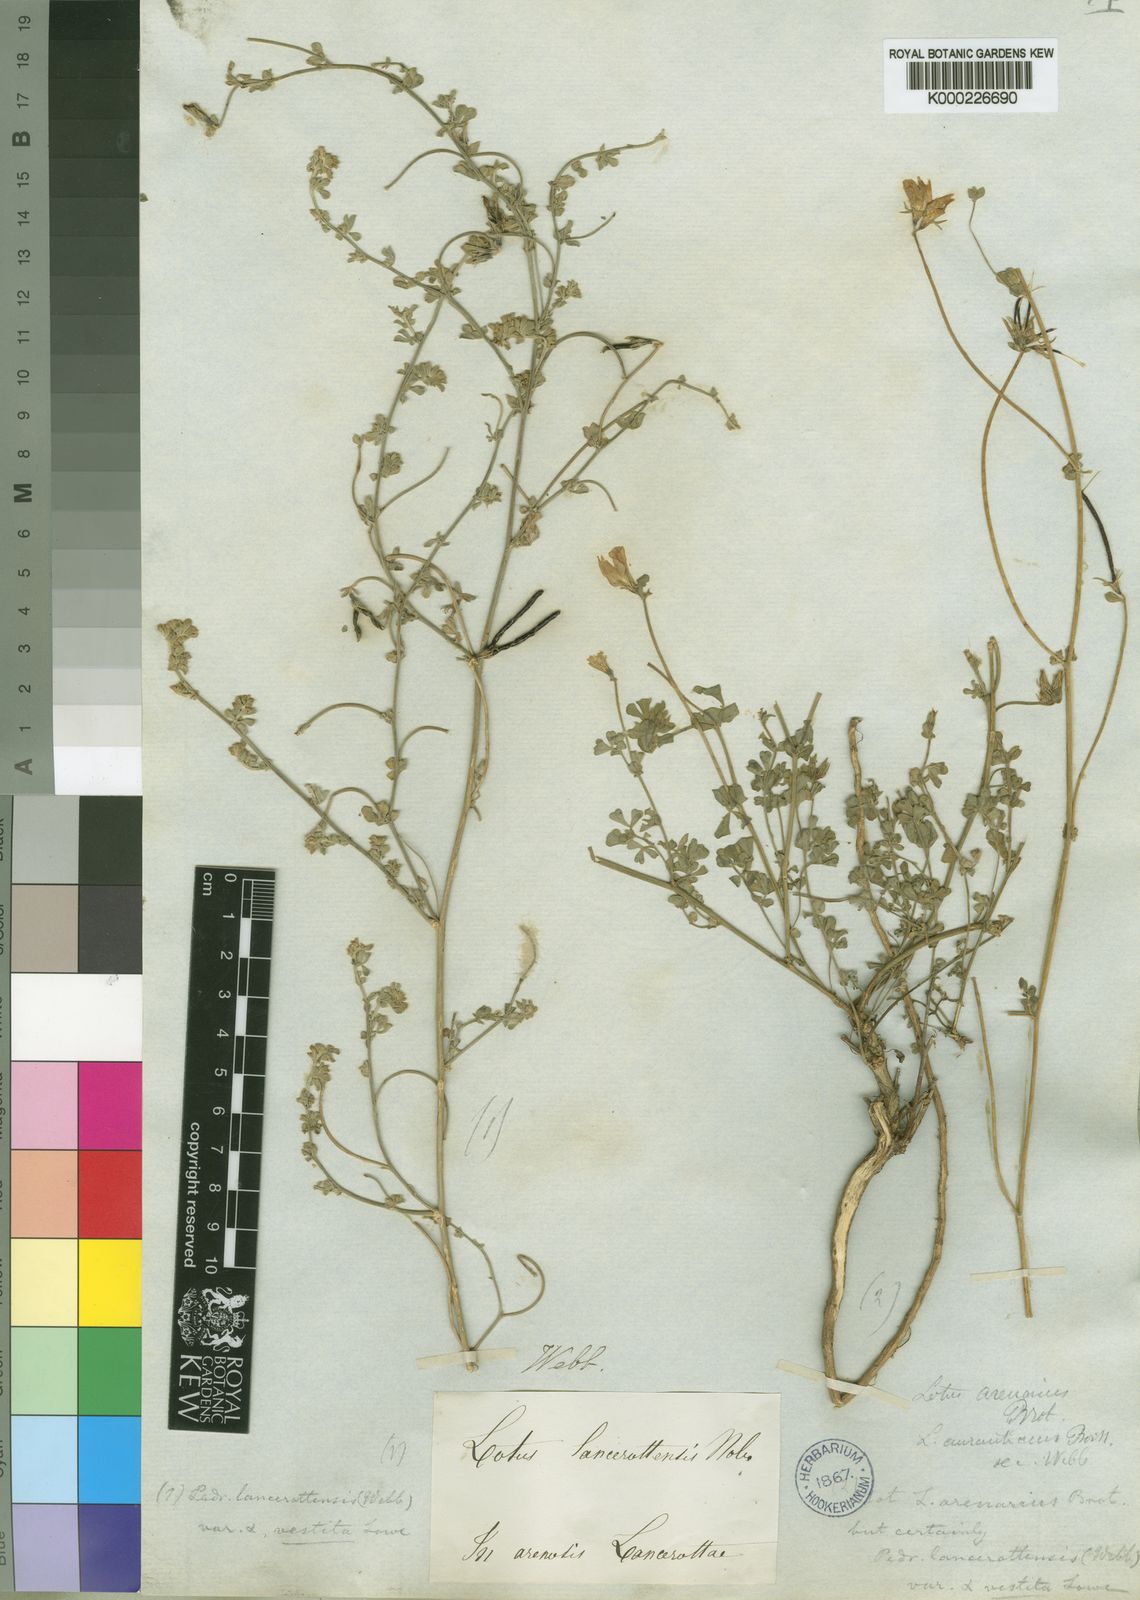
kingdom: Plantae
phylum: Tracheophyta
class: Magnoliopsida
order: Fabales
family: Fabaceae
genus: Lotus
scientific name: Lotus
